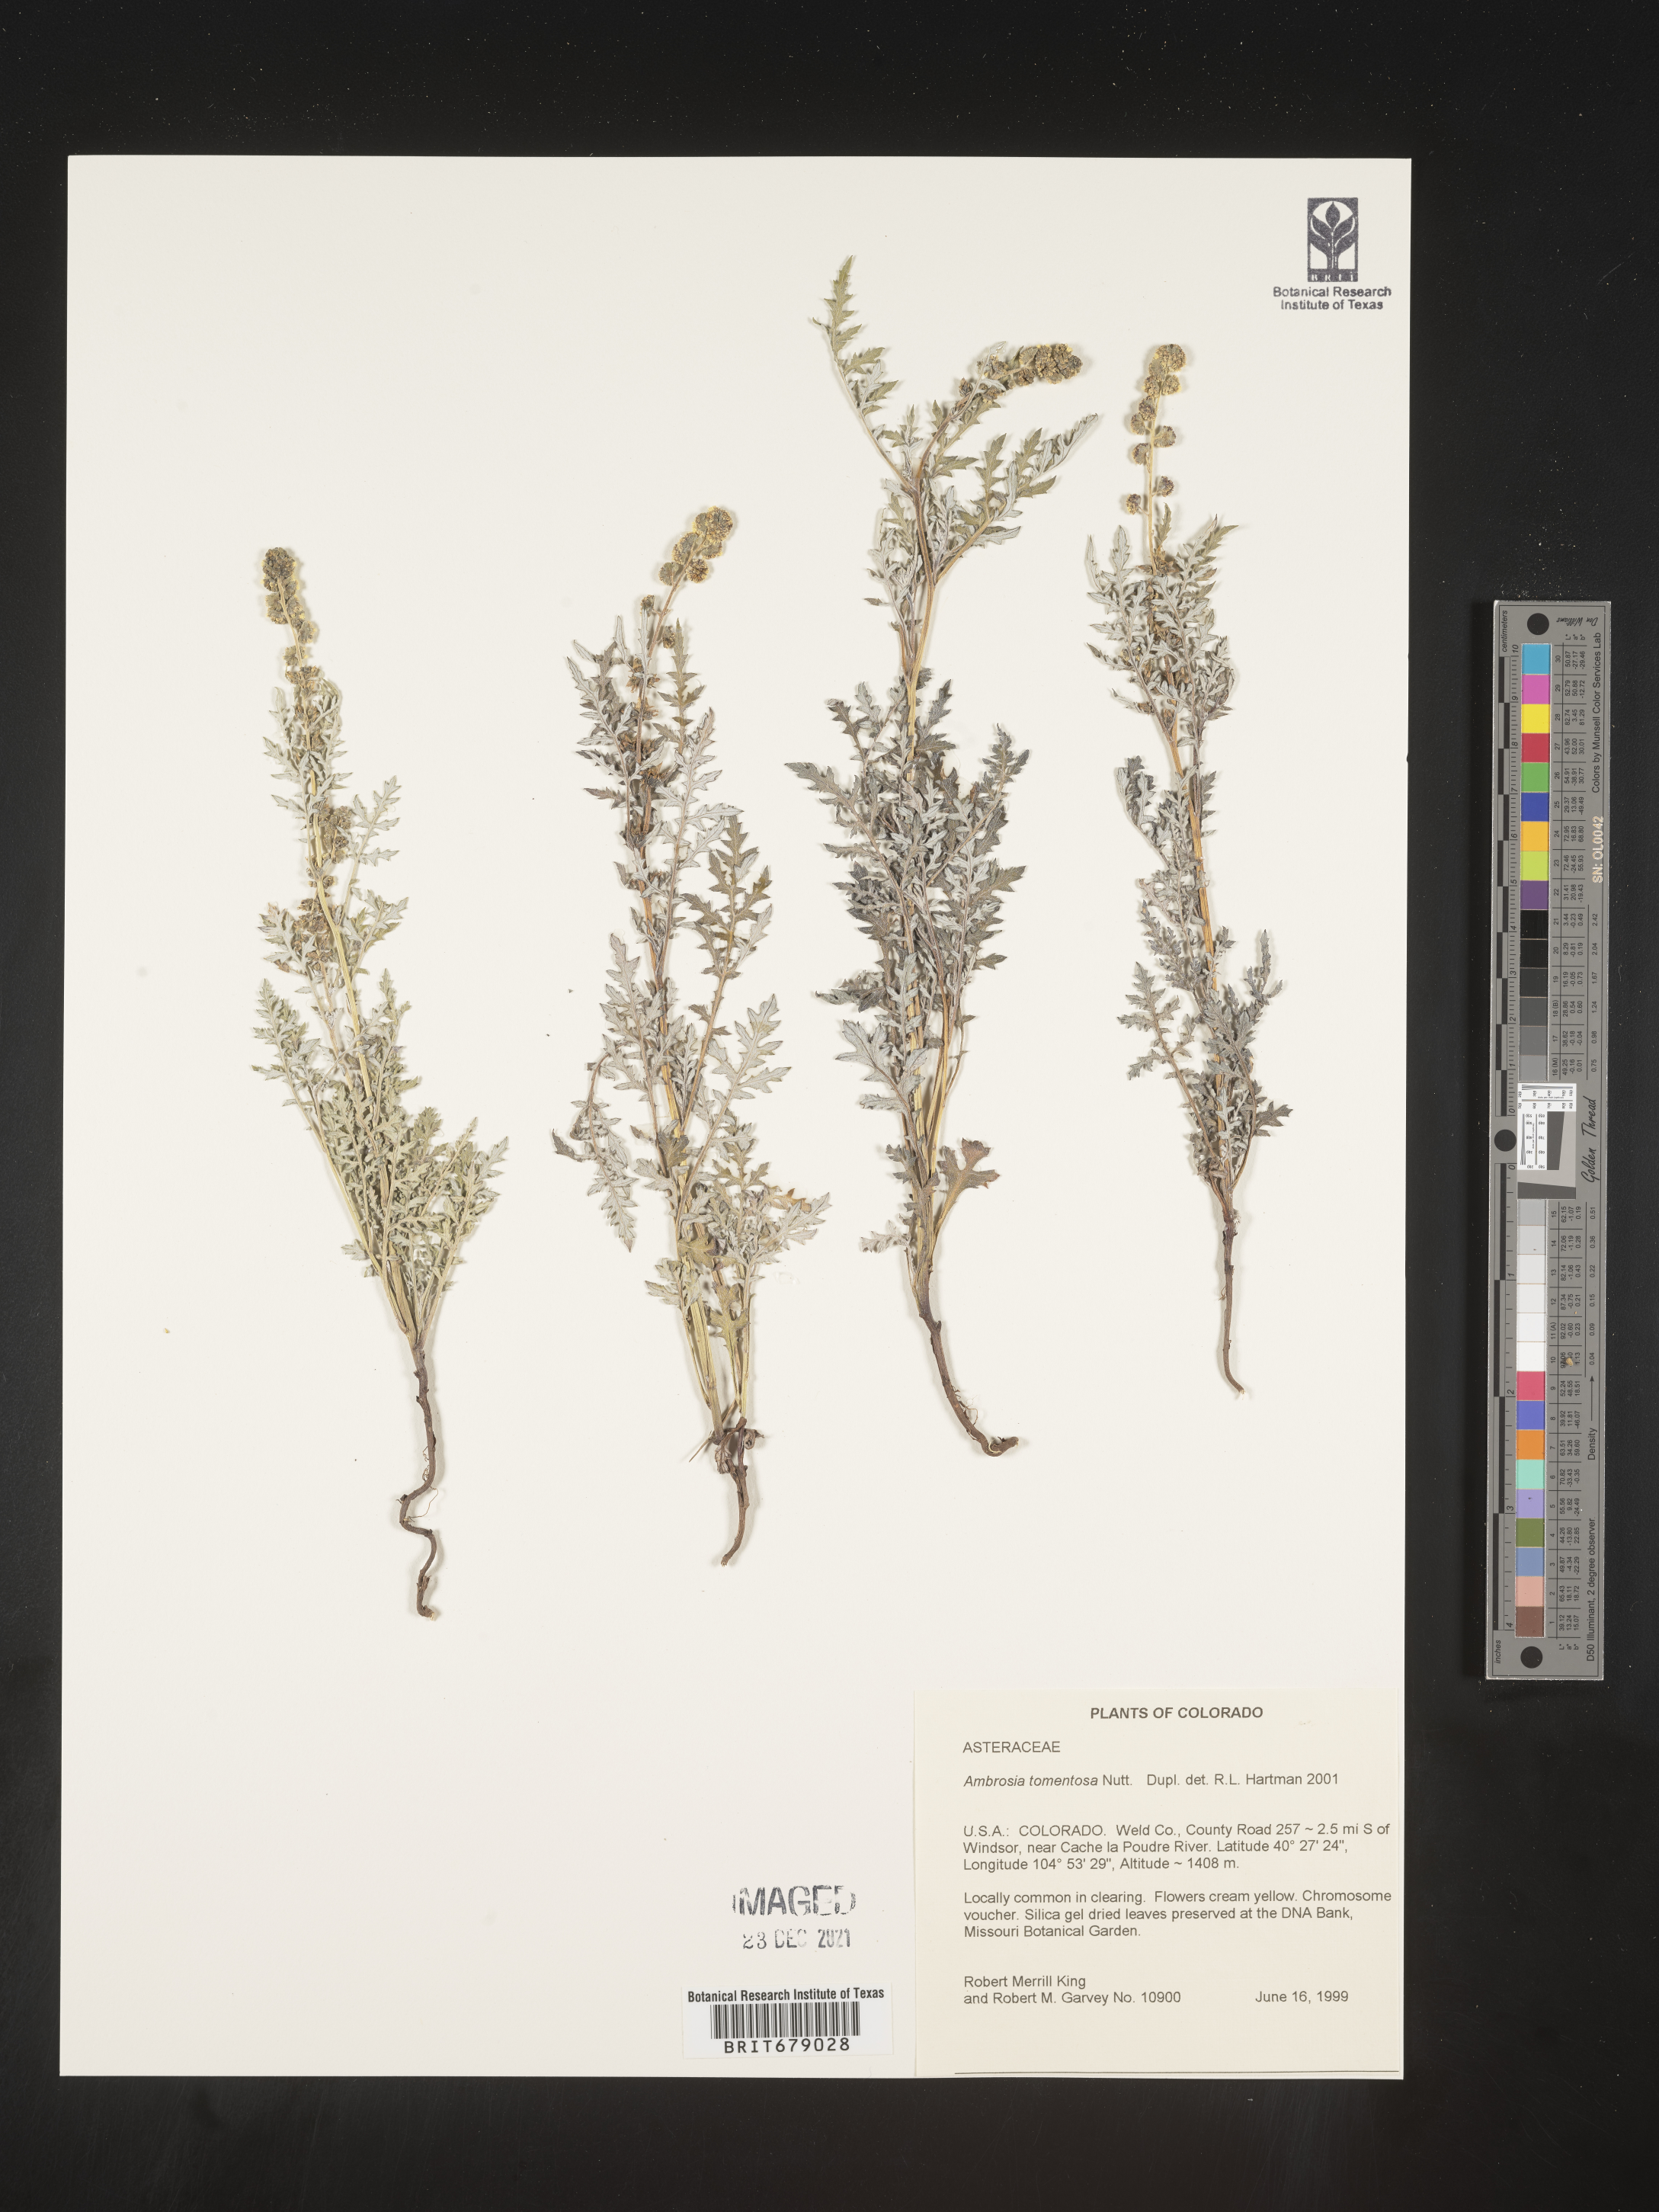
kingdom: Plantae
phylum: Tracheophyta
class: Magnoliopsida
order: Asterales
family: Asteraceae
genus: Ambrosia
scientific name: Ambrosia
